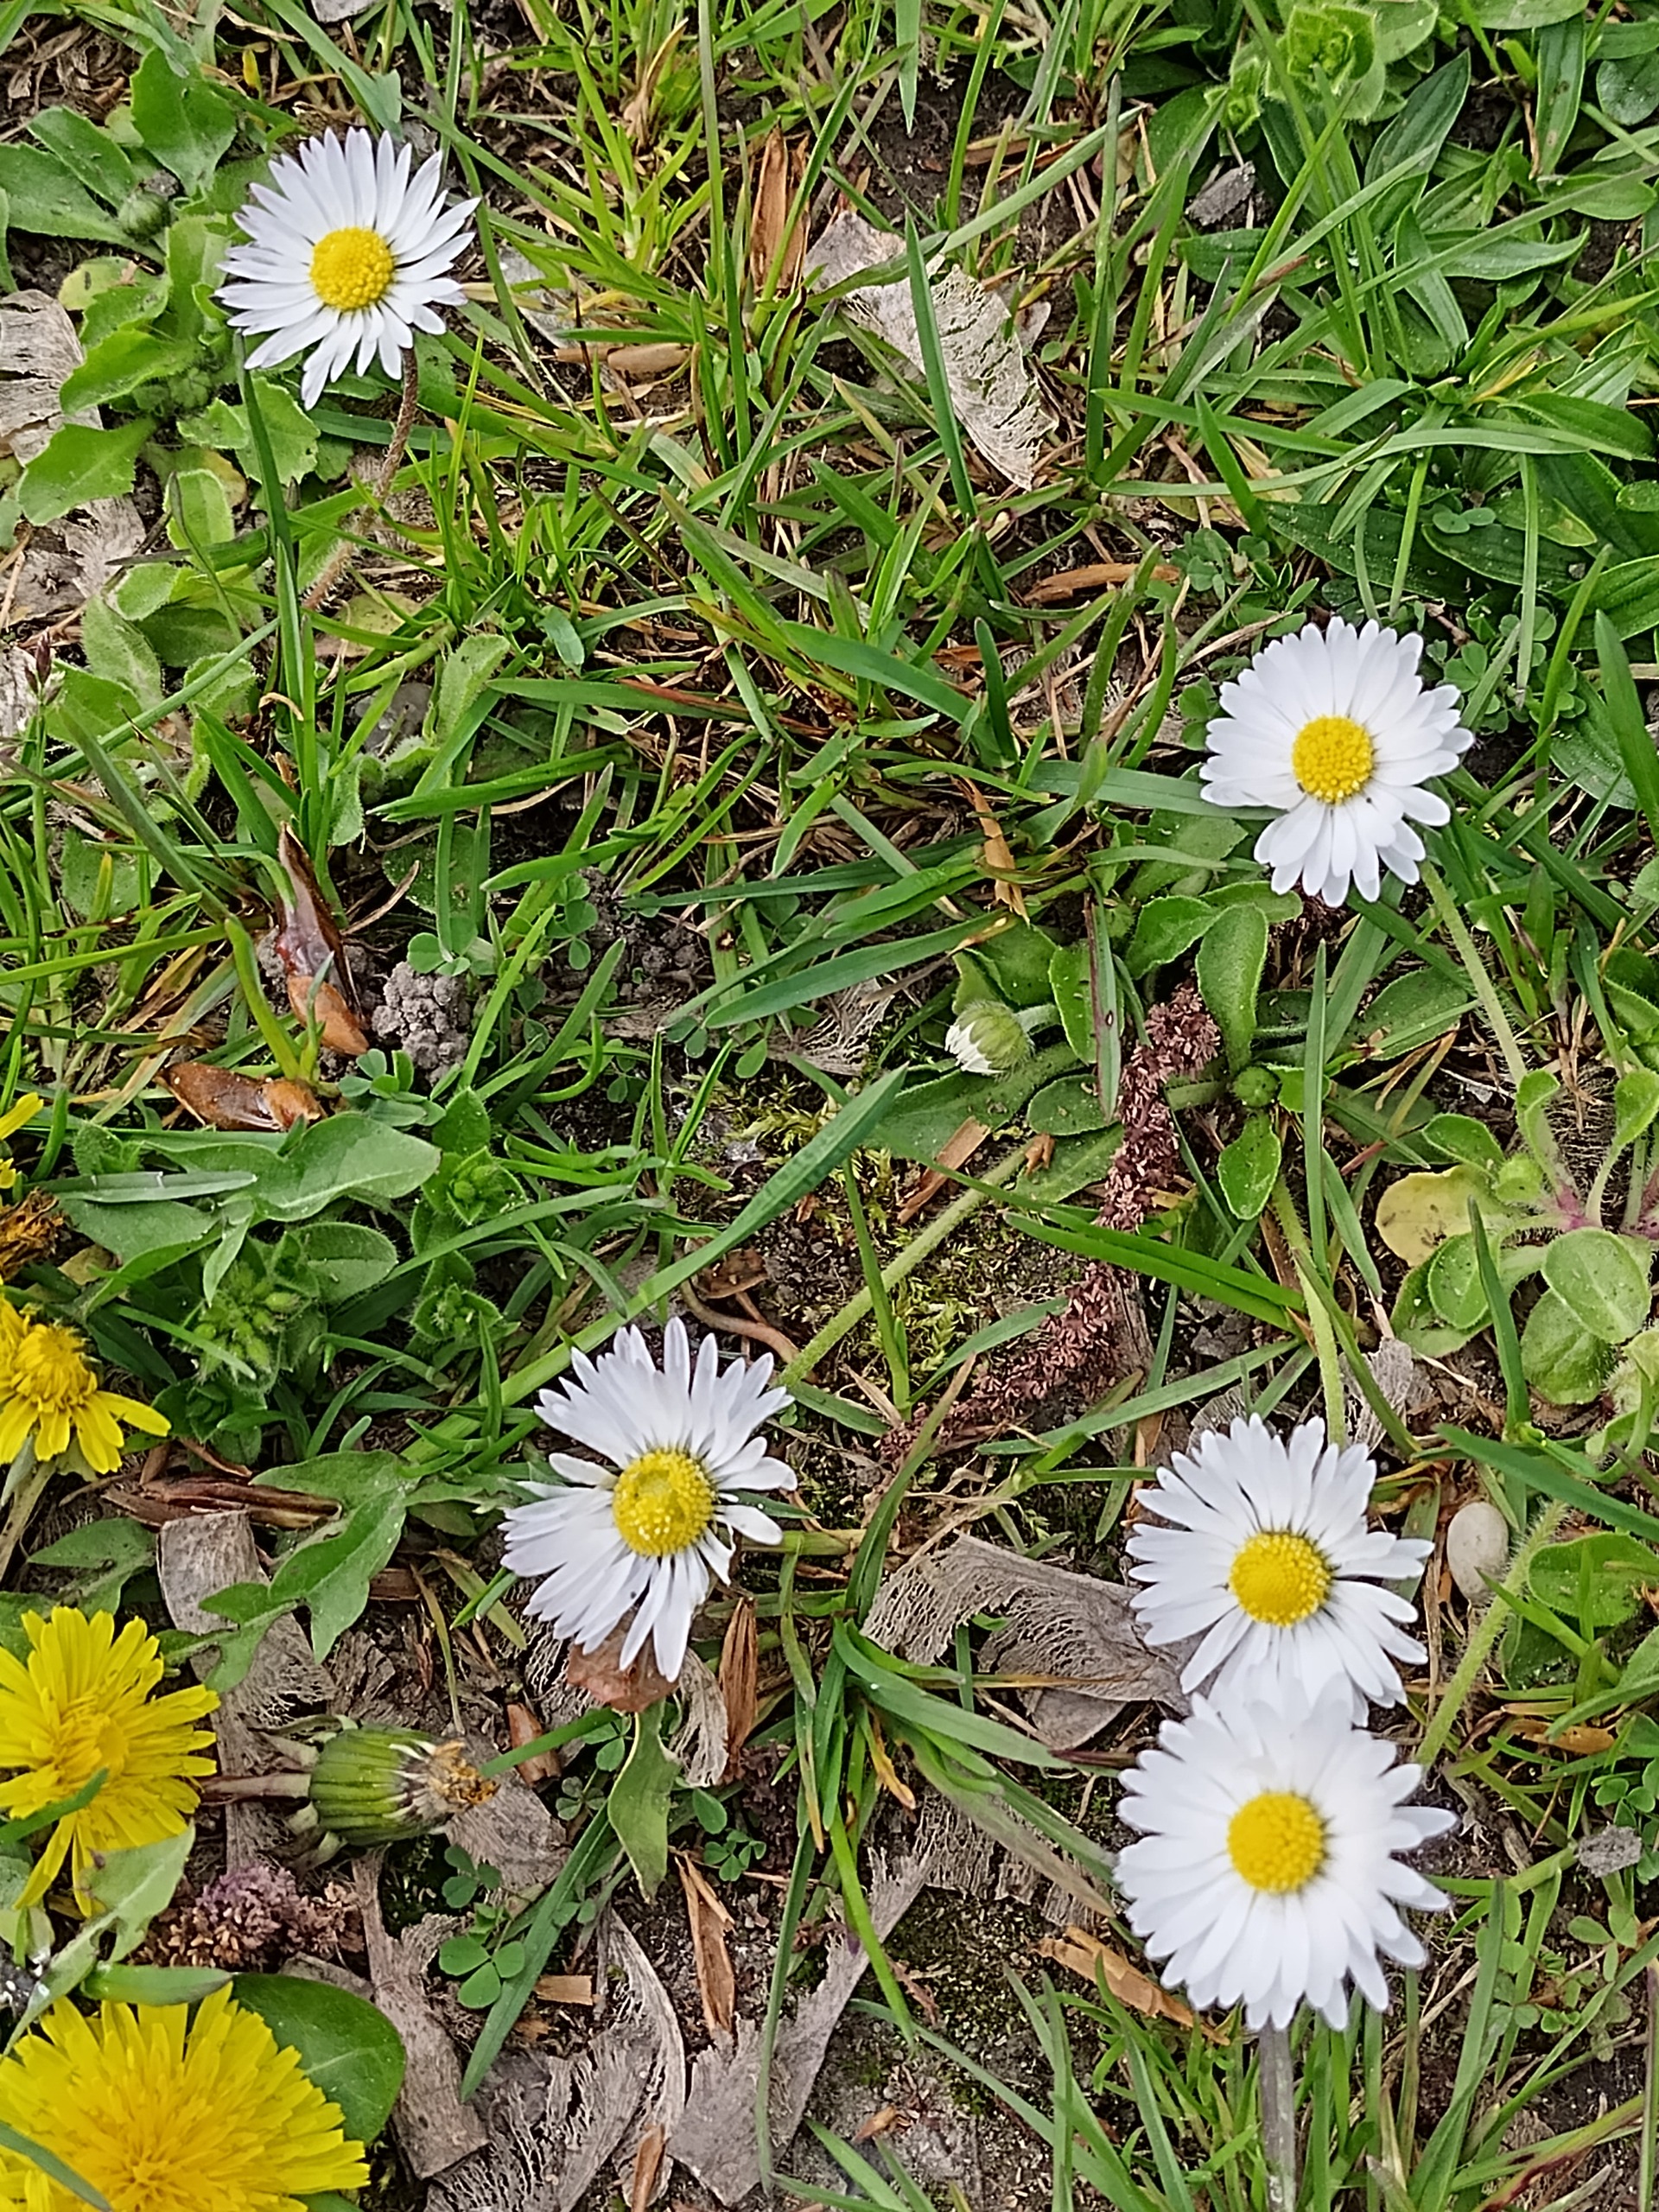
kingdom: Plantae
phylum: Tracheophyta
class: Magnoliopsida
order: Asterales
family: Asteraceae
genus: Bellis
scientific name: Bellis perennis
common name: Tusindfryd
